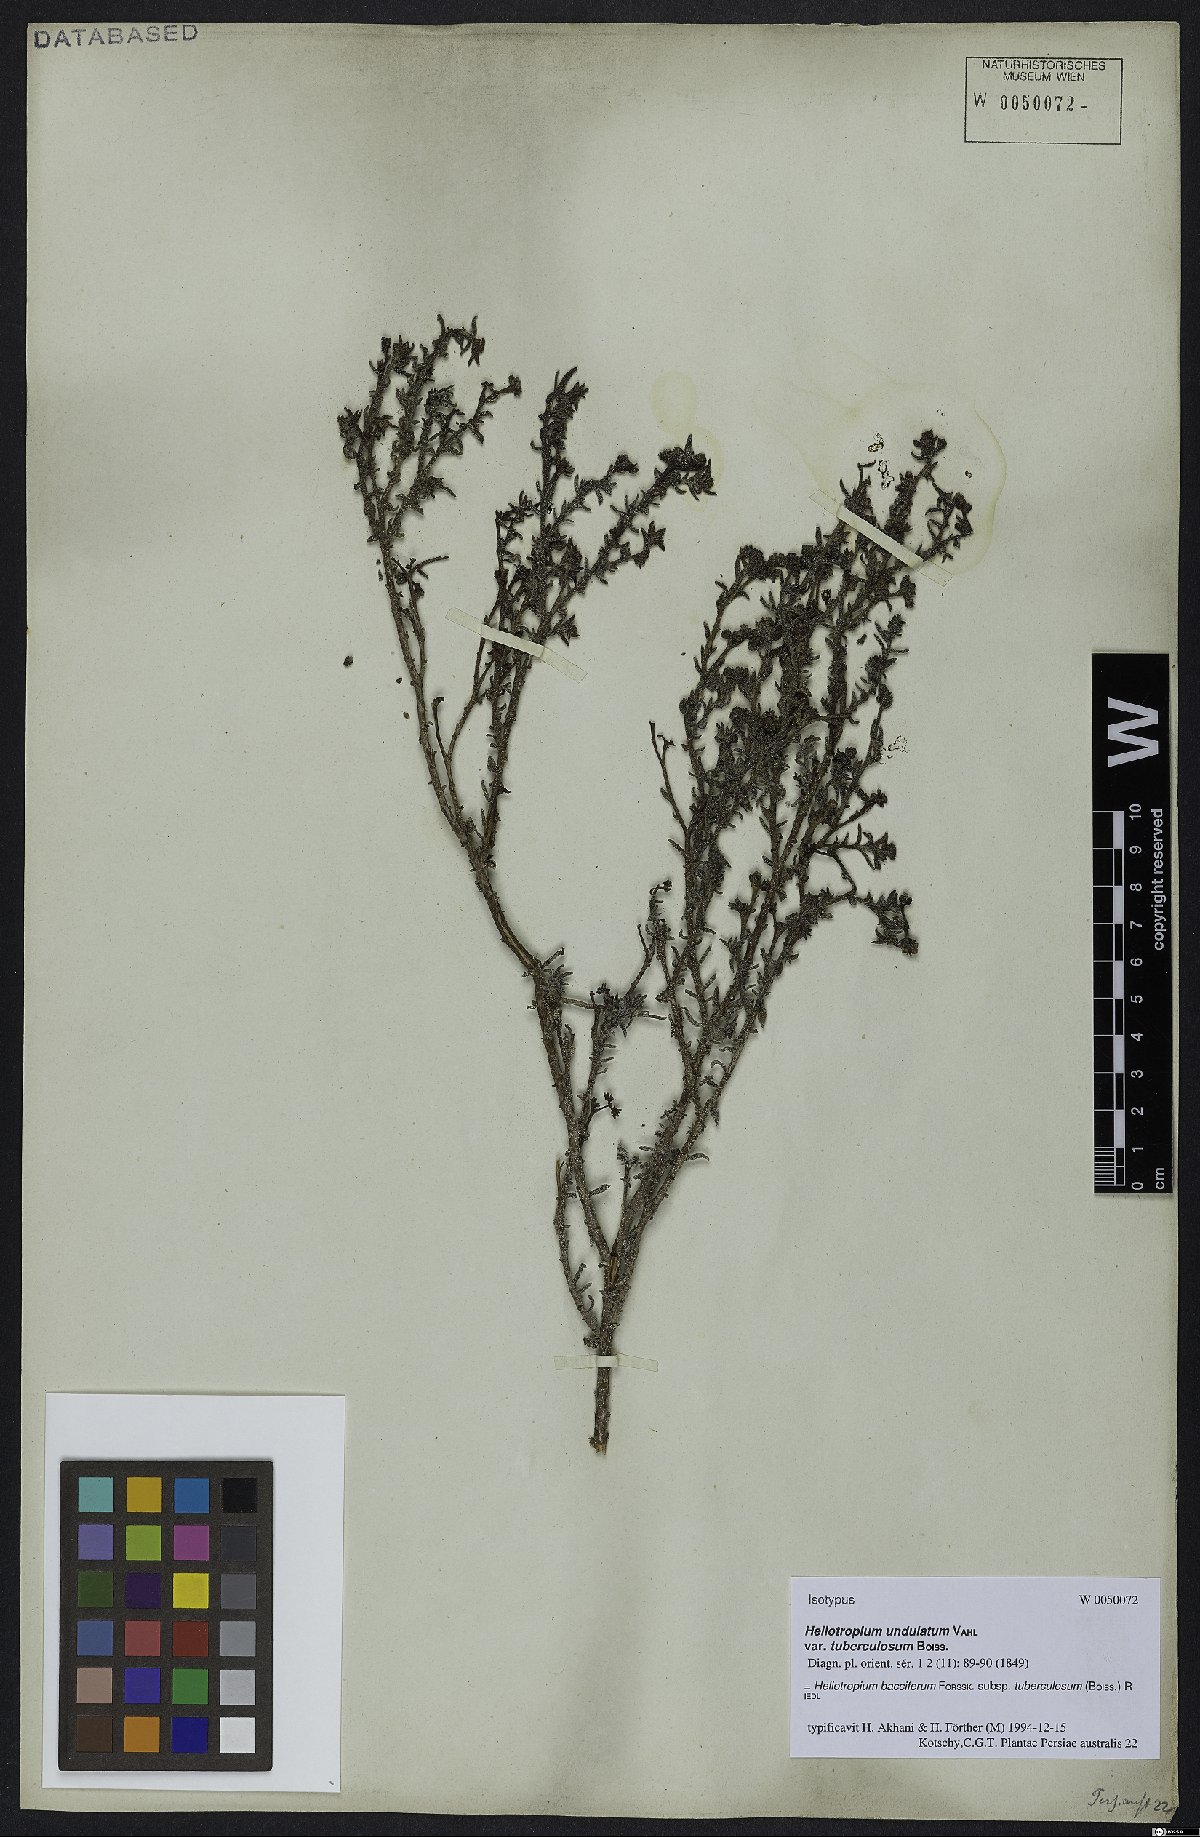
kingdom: Plantae
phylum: Tracheophyta
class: Magnoliopsida
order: Boraginales
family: Heliotropiaceae
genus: Heliotropium
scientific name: Heliotropium bacciferum
